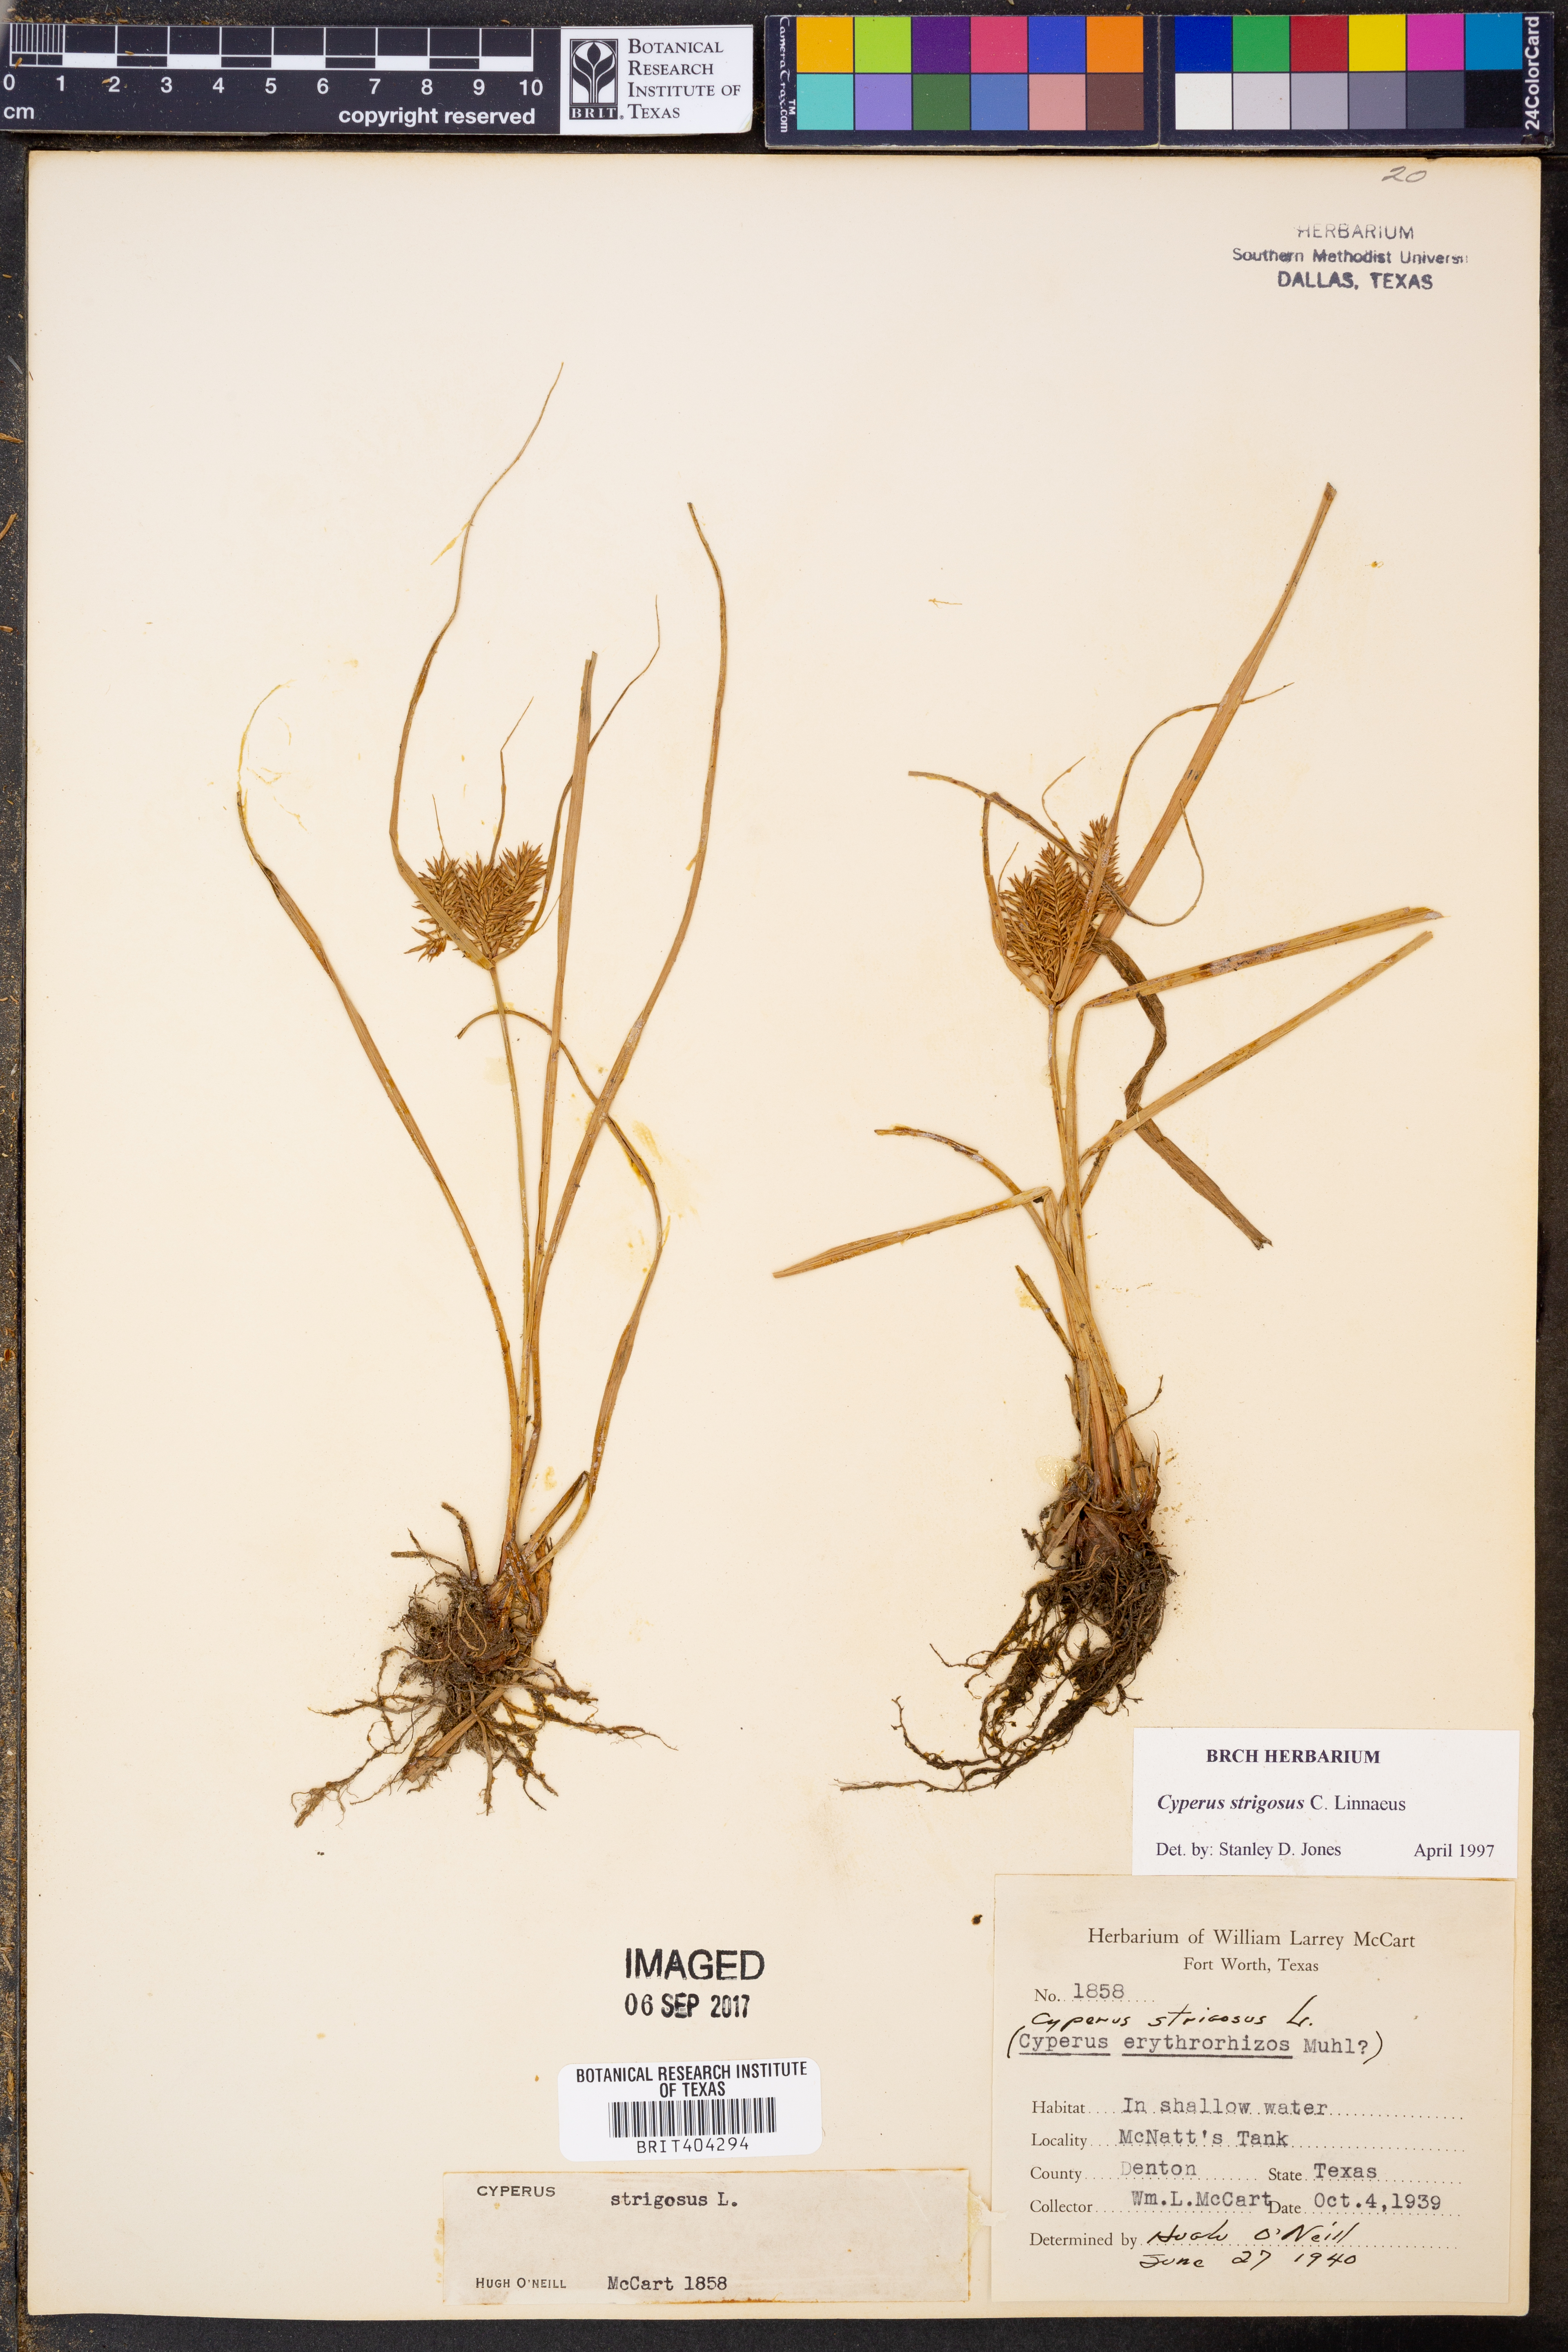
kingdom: Plantae
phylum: Tracheophyta
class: Liliopsida
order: Poales
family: Cyperaceae
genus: Cyperus
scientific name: Cyperus strigosus
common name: False nutsedge
